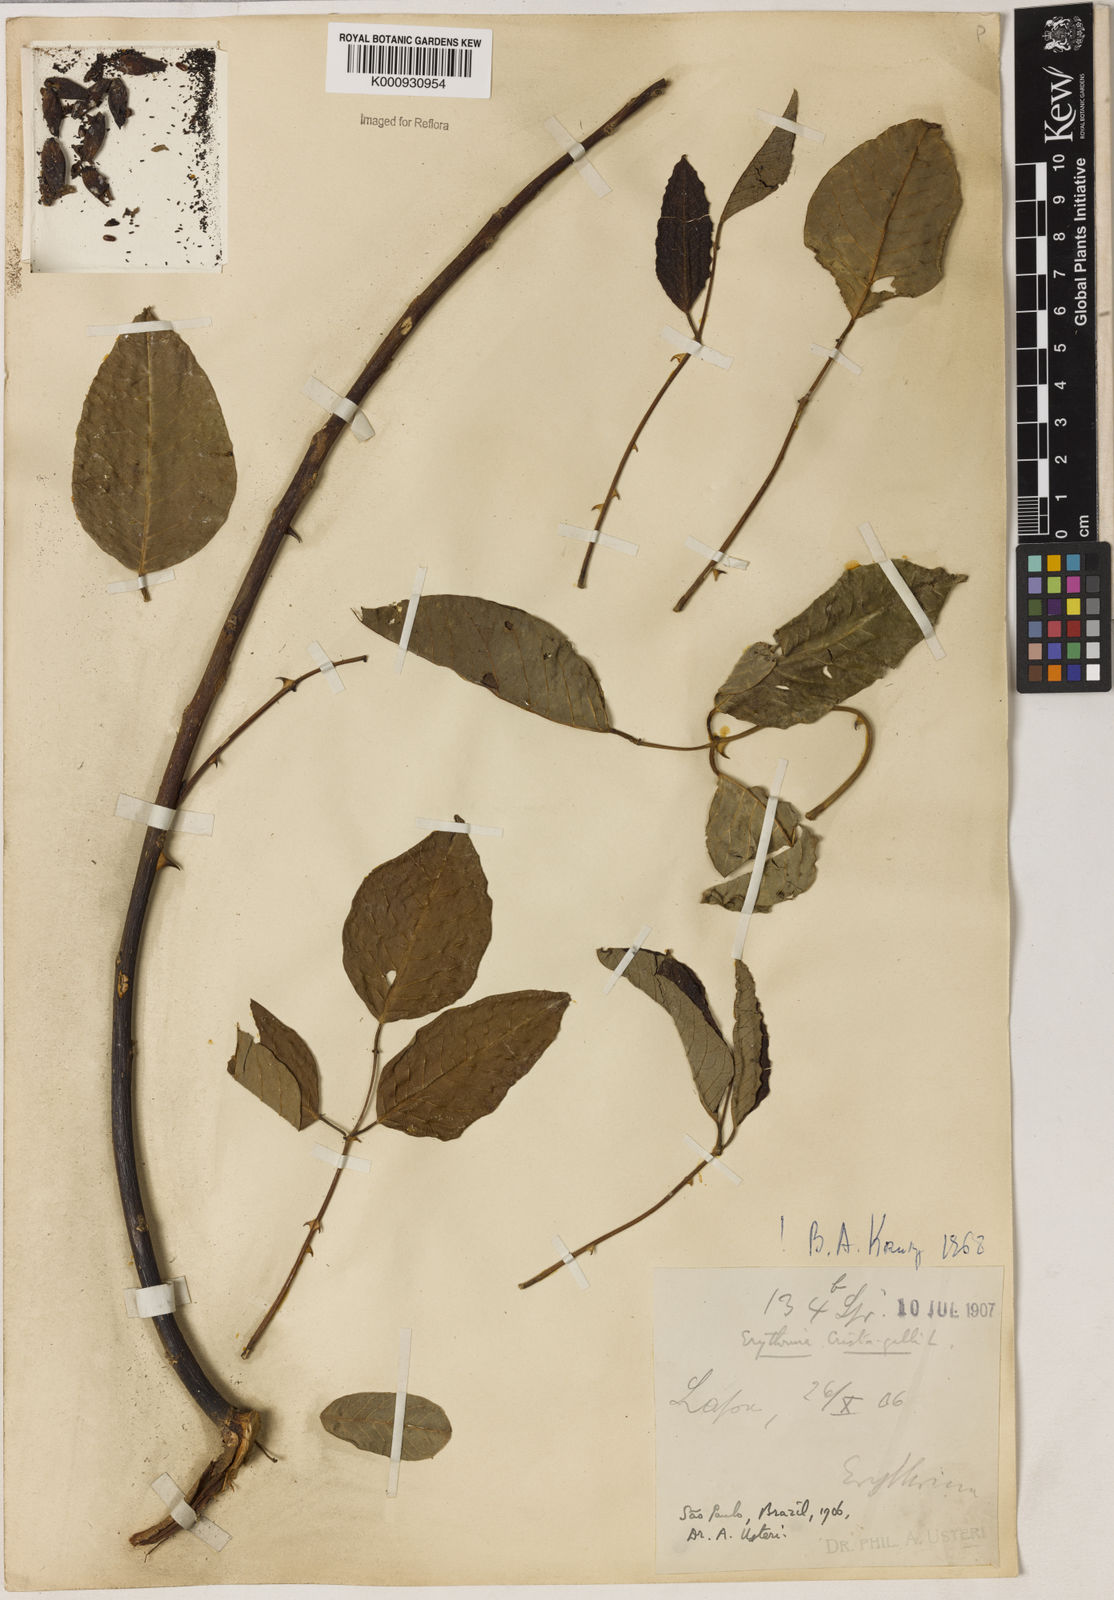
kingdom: Plantae
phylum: Tracheophyta
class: Magnoliopsida
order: Fabales
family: Fabaceae
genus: Erythrina
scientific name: Erythrina crista-galli
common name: Cockspur coral tree
